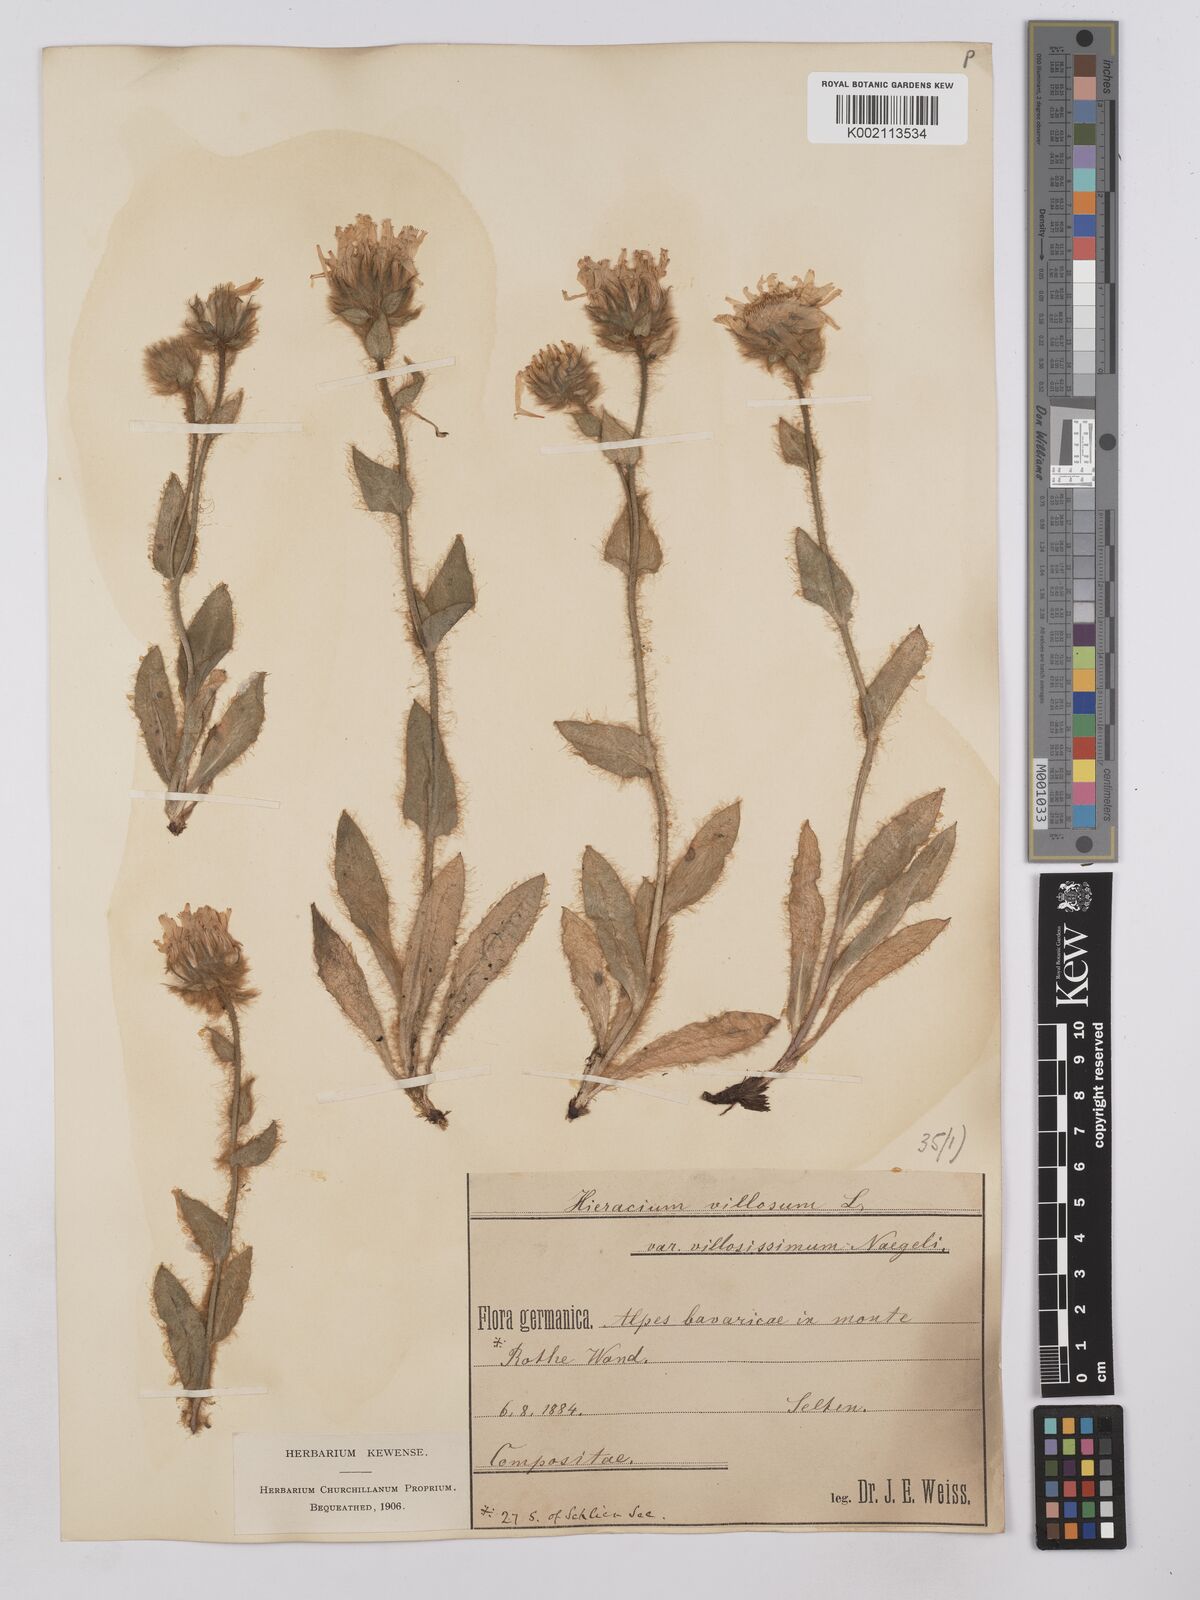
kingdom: Plantae
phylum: Tracheophyta
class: Magnoliopsida
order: Asterales
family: Asteraceae
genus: Hieracium
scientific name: Hieracium
